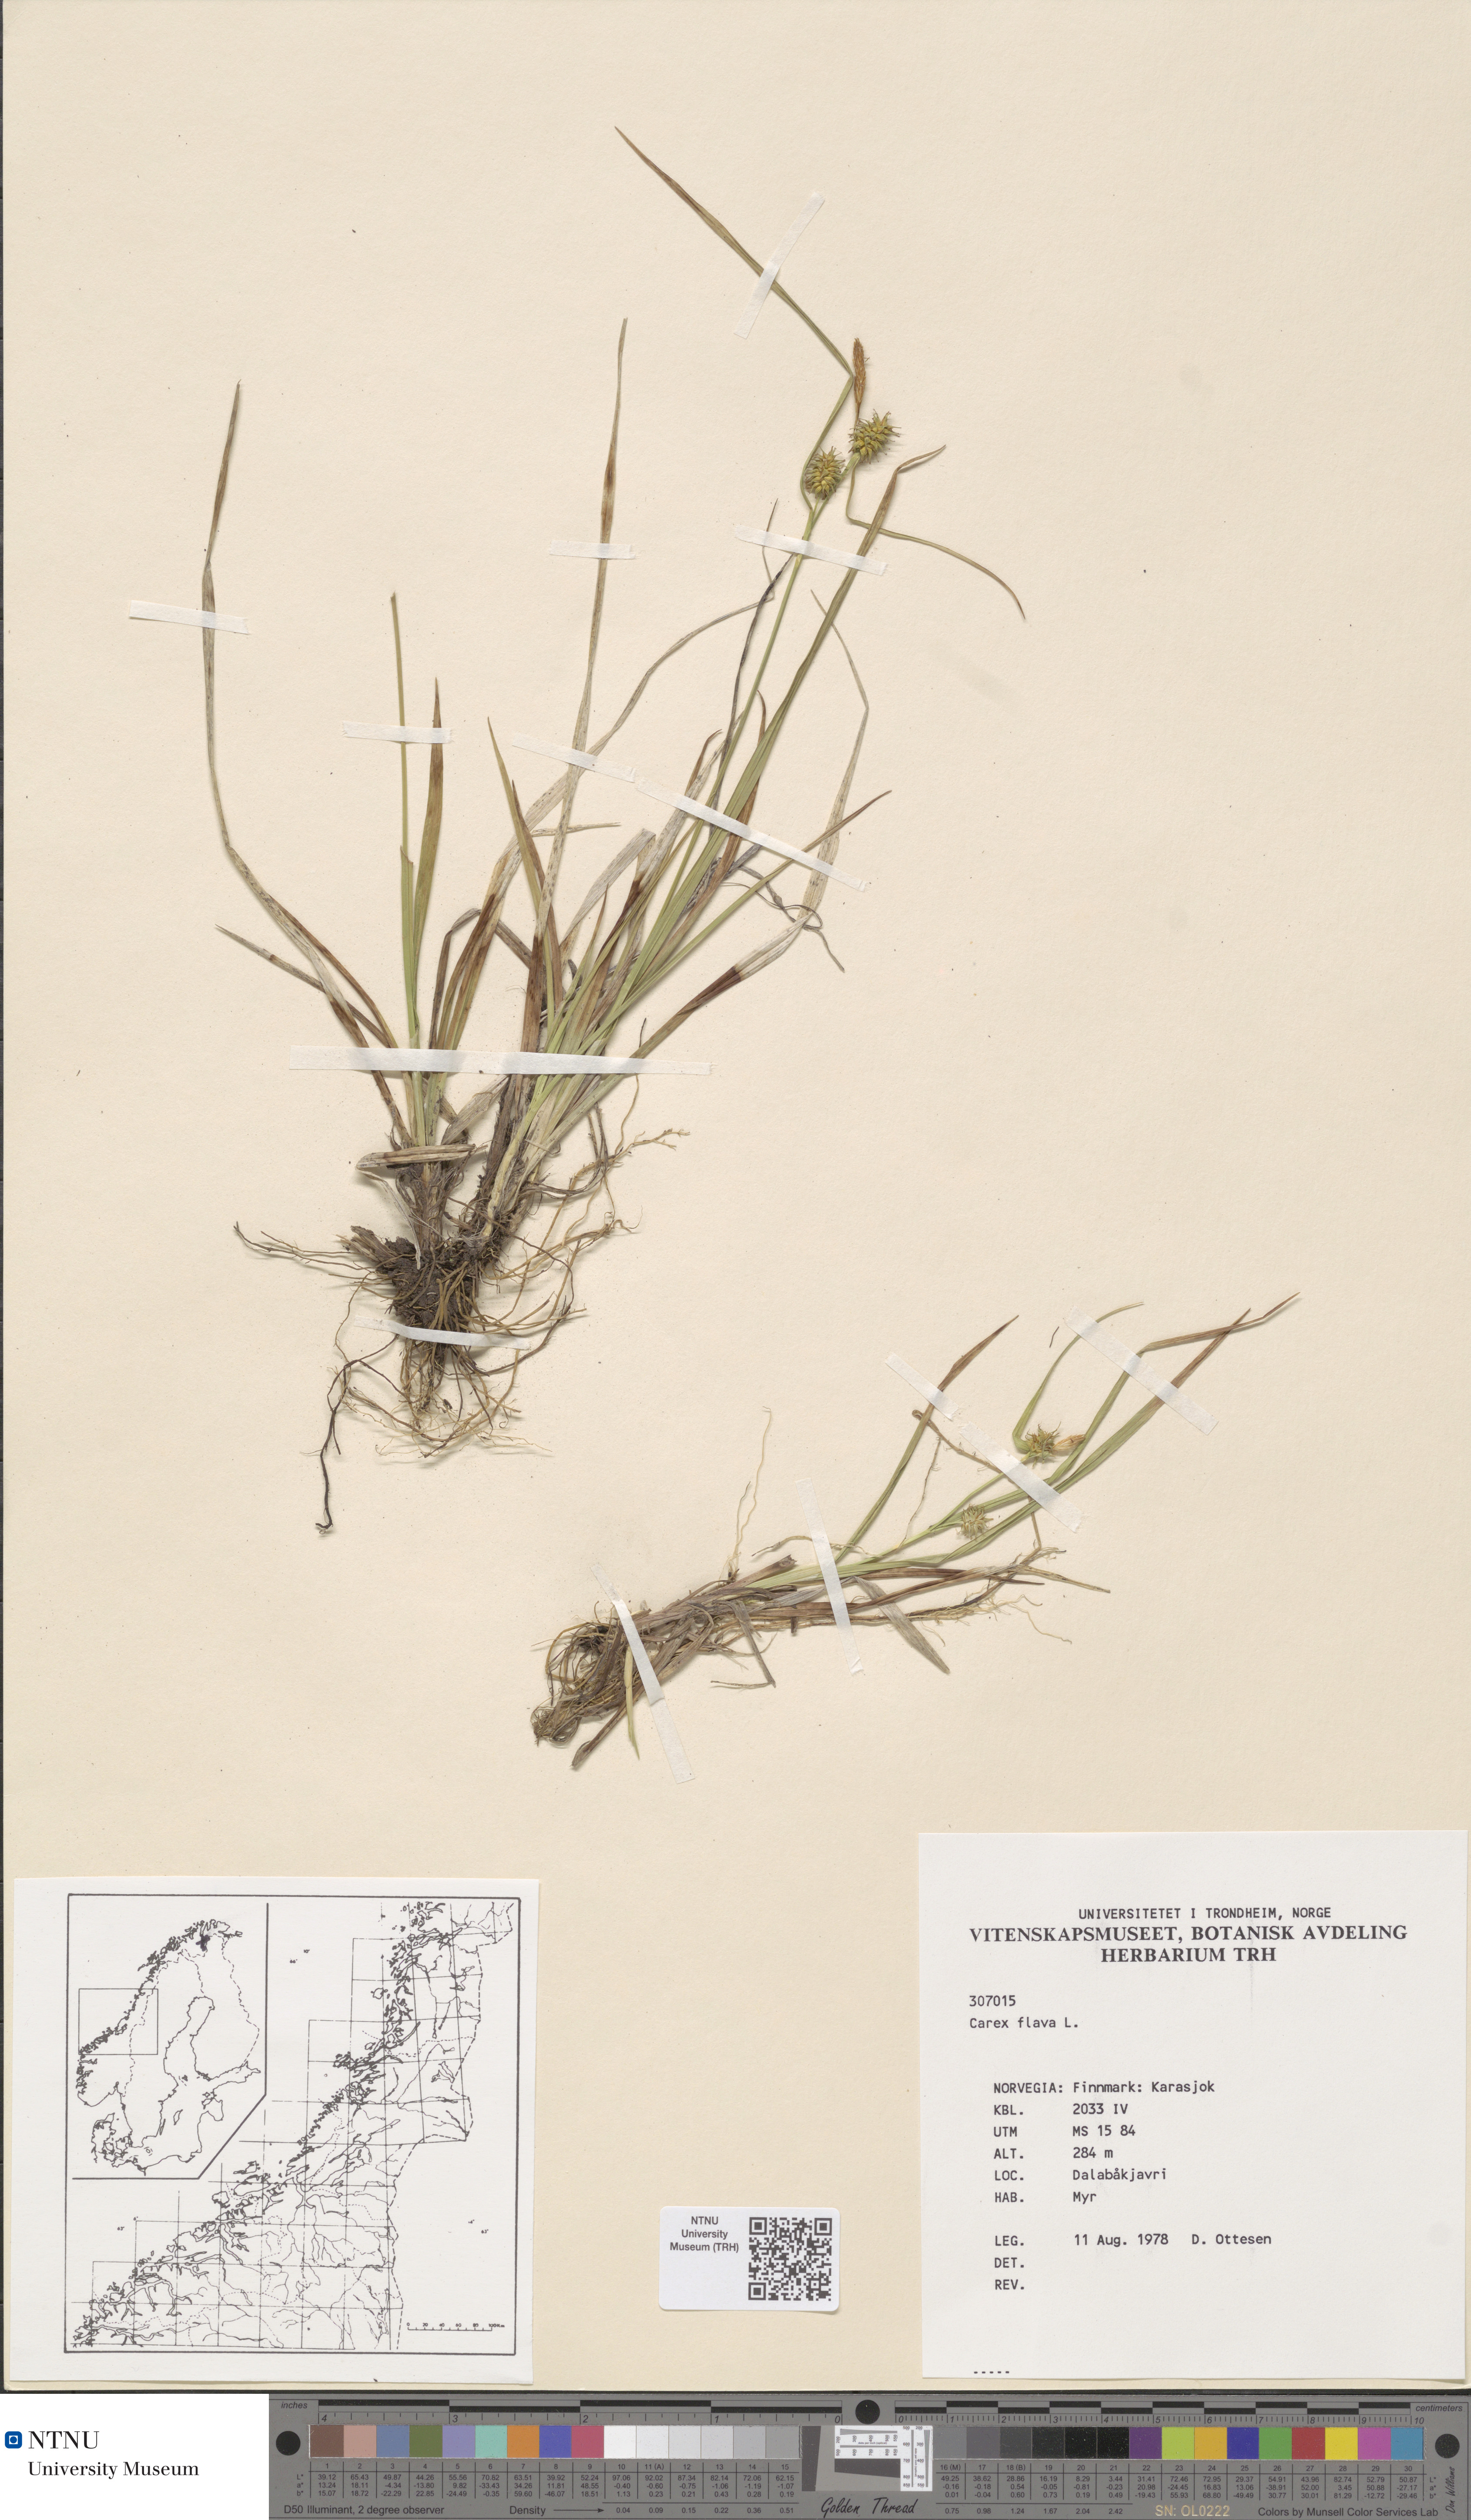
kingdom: Plantae
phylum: Tracheophyta
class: Liliopsida
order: Poales
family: Cyperaceae
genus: Carex
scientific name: Carex flava
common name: Large yellow-sedge
